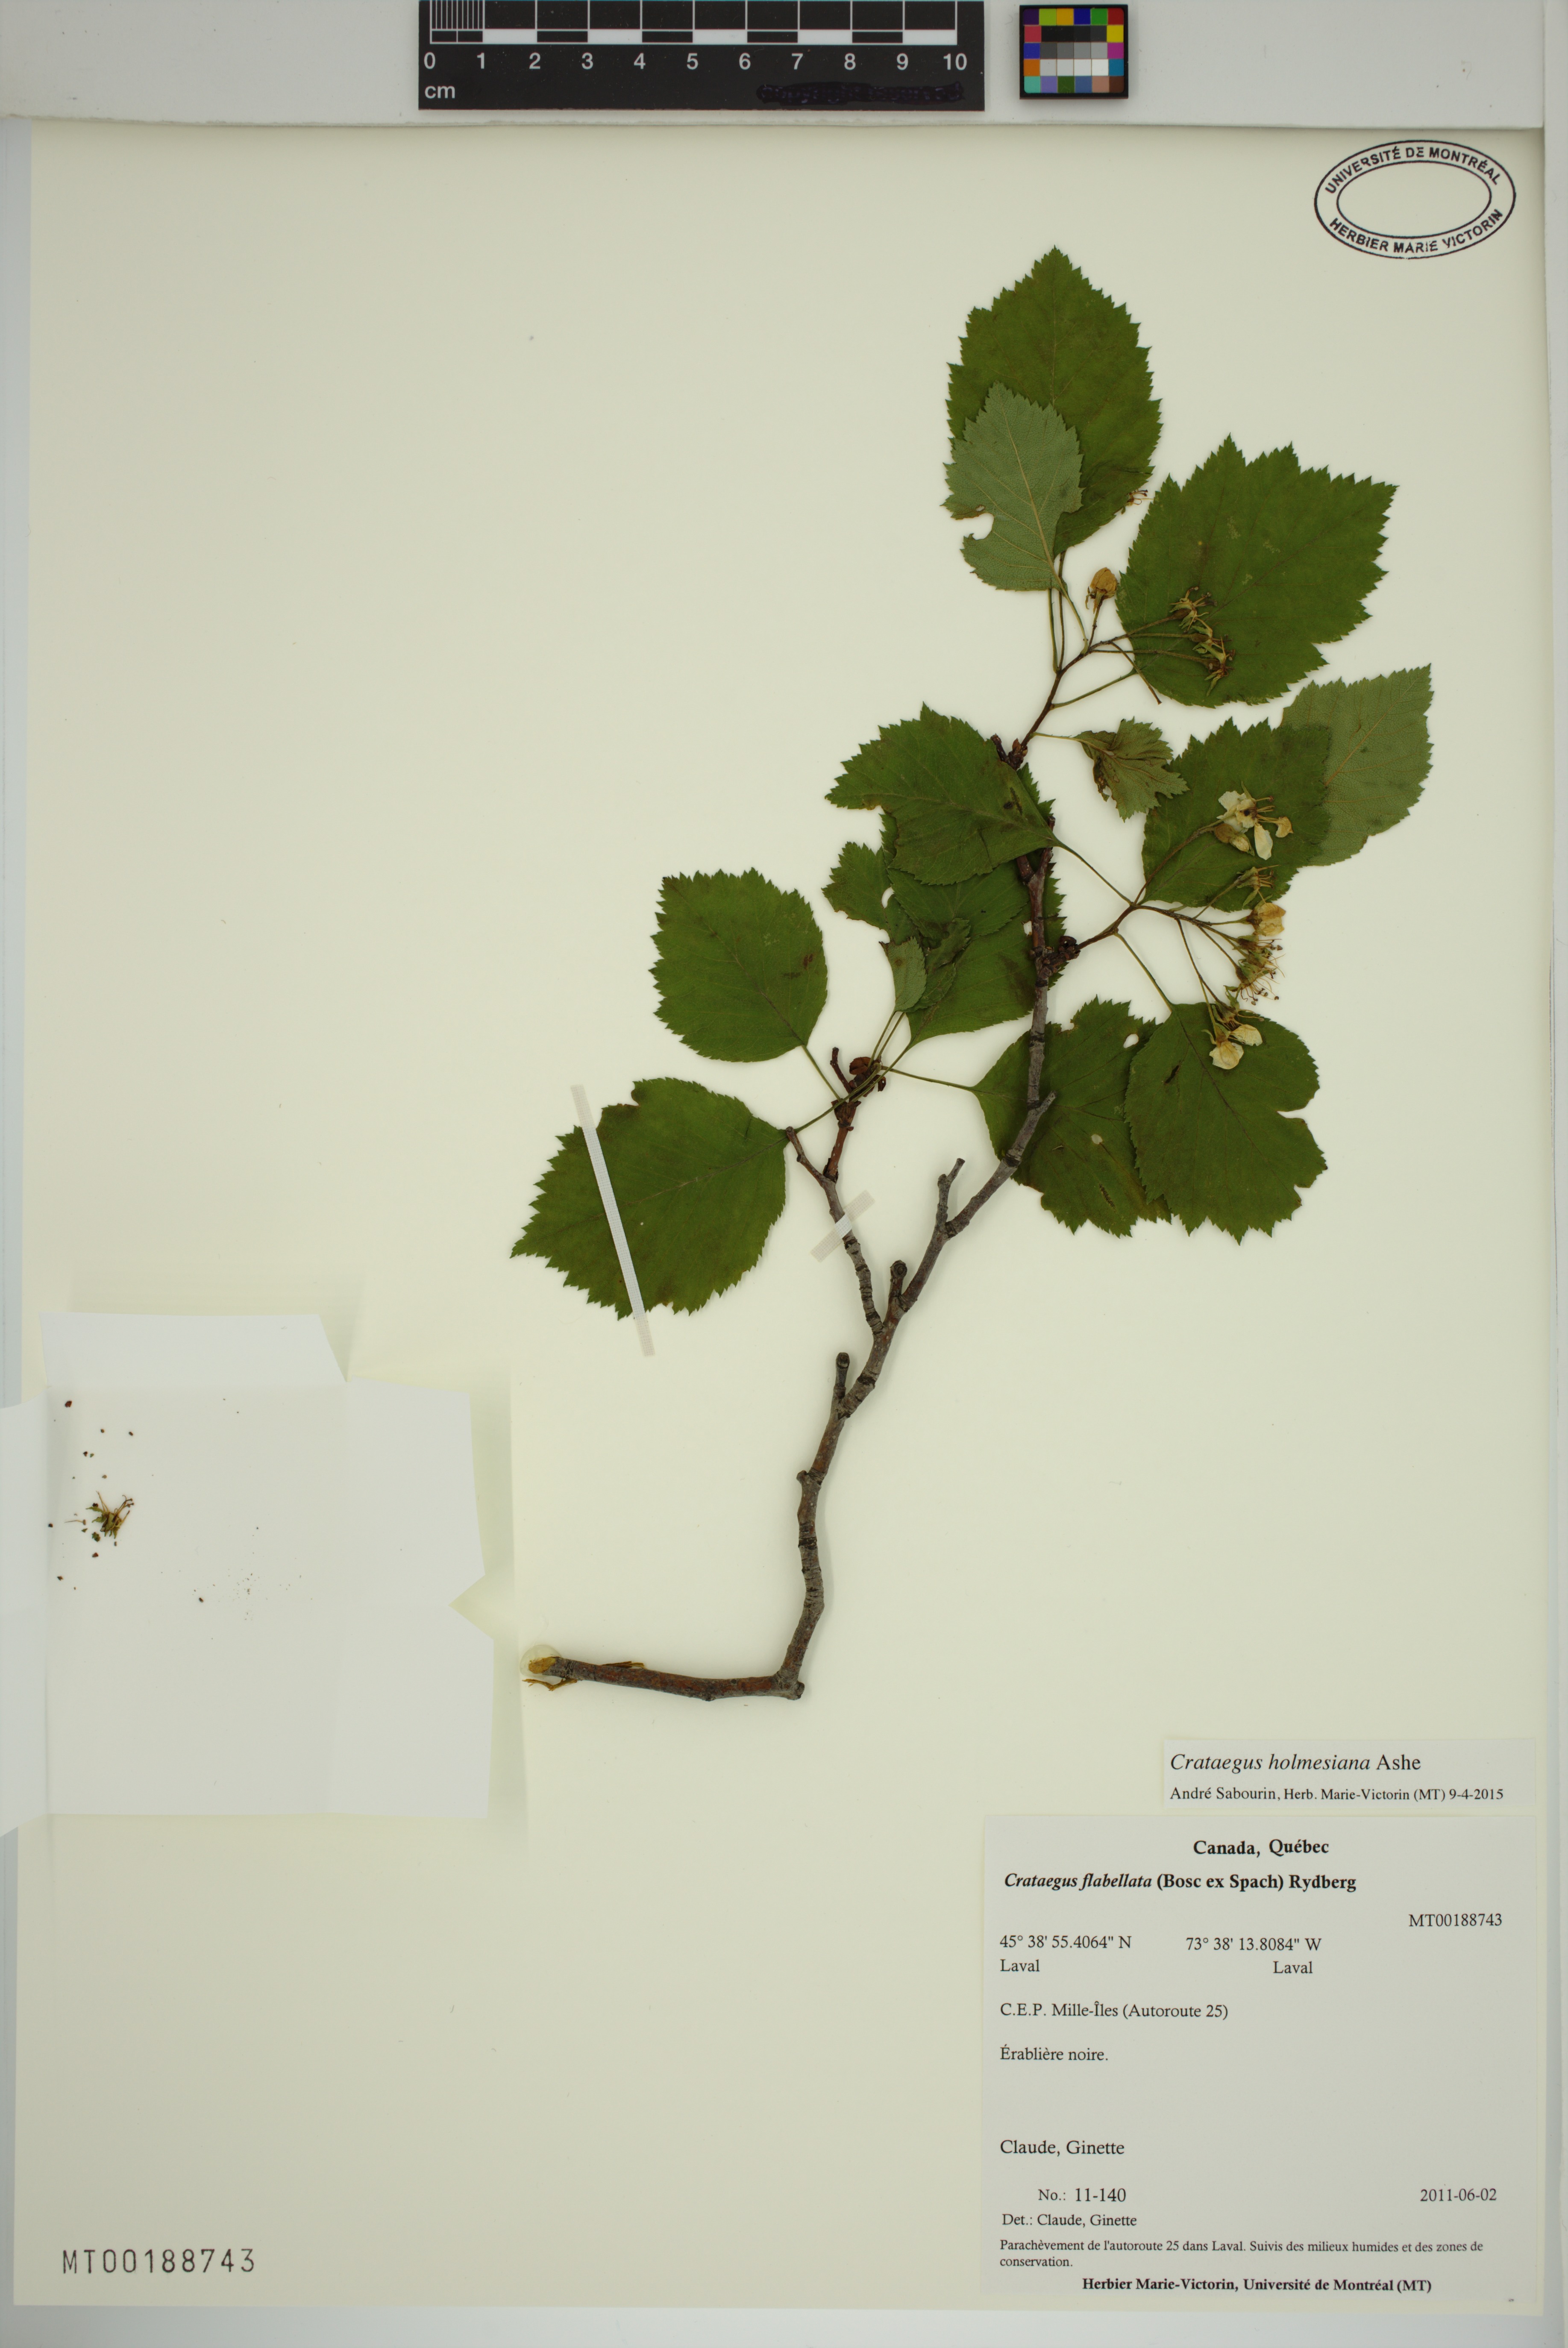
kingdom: Plantae
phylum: Tracheophyta
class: Magnoliopsida
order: Rosales
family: Rosaceae
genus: Crataegus
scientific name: Crataegus holmesiana
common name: Holmes' hawthorn
